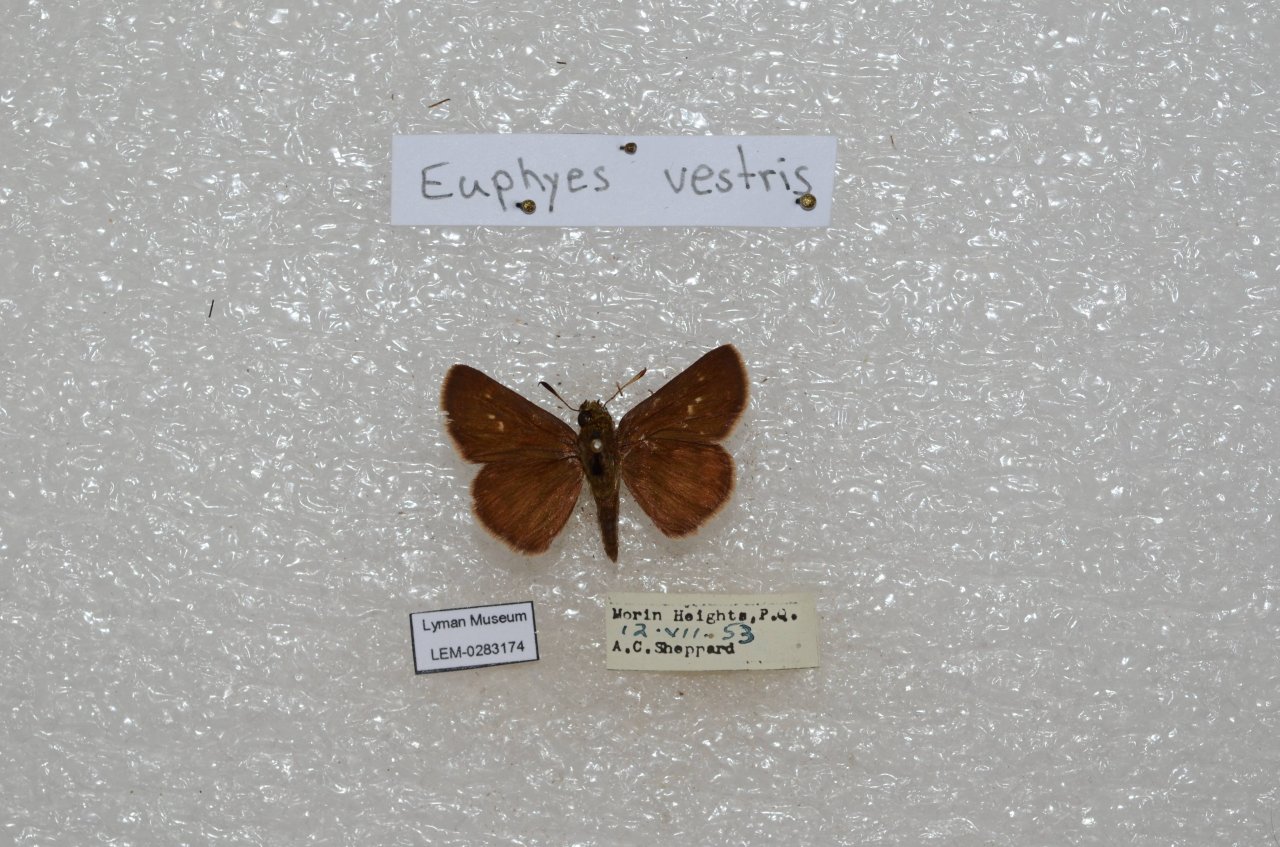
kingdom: Animalia
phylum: Arthropoda
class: Insecta
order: Lepidoptera
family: Hesperiidae
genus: Euphyes
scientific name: Euphyes vestris
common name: Dun Skipper
